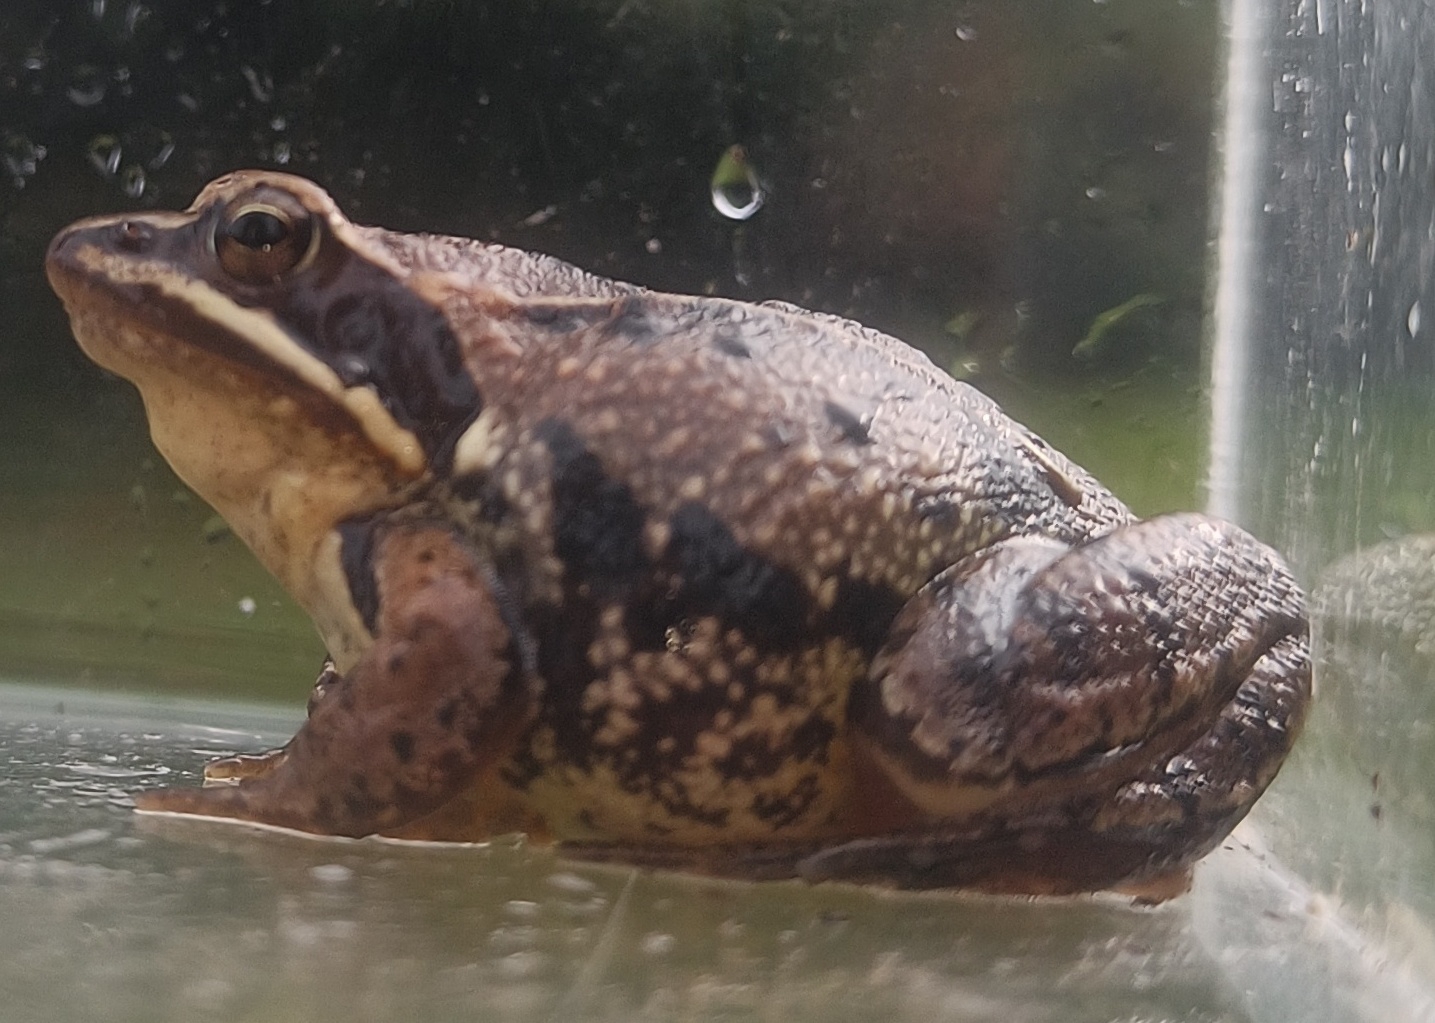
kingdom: Animalia
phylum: Chordata
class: Amphibia
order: Anura
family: Ranidae
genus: Rana
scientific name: Rana arvalis
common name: Spidssnudet frø
